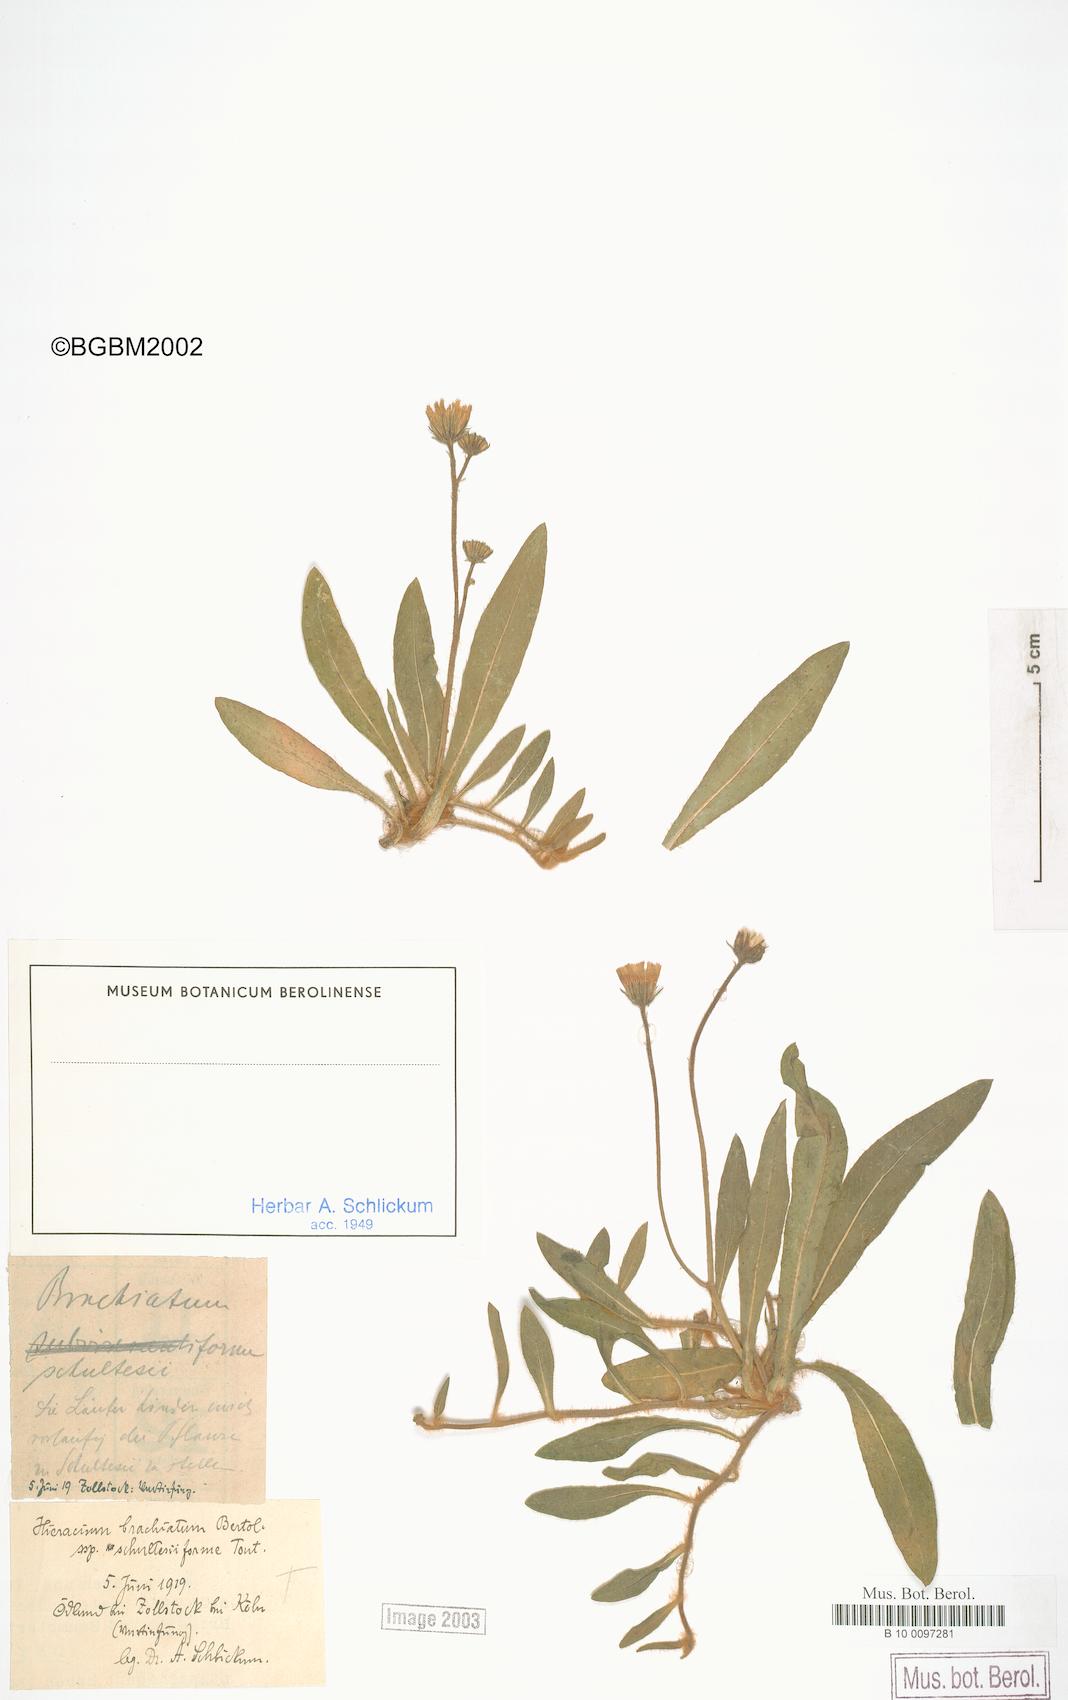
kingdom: Plantae
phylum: Tracheophyta
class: Magnoliopsida
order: Asterales
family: Asteraceae
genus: Pilosella
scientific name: Pilosella acutifolia
